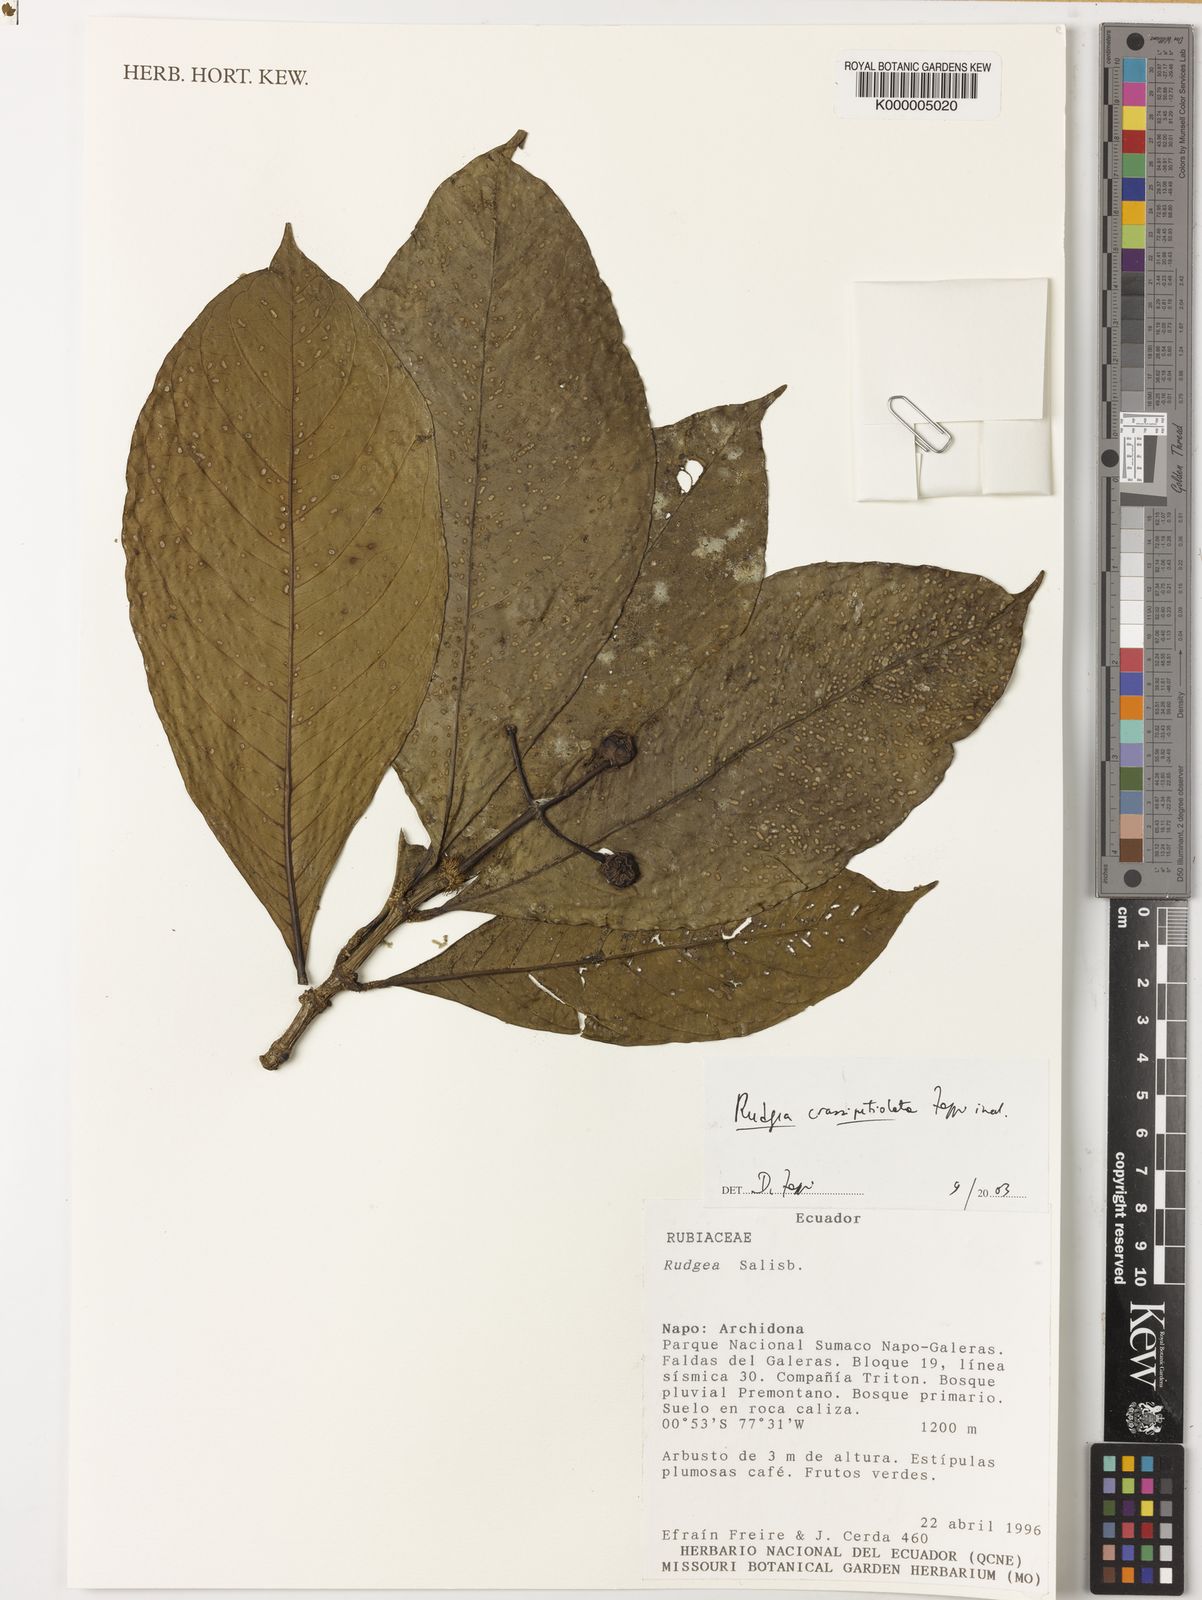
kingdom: Plantae
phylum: Tracheophyta
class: Magnoliopsida
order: Gentianales
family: Rubiaceae
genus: Rudgea
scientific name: Rudgea crassipetiolata
